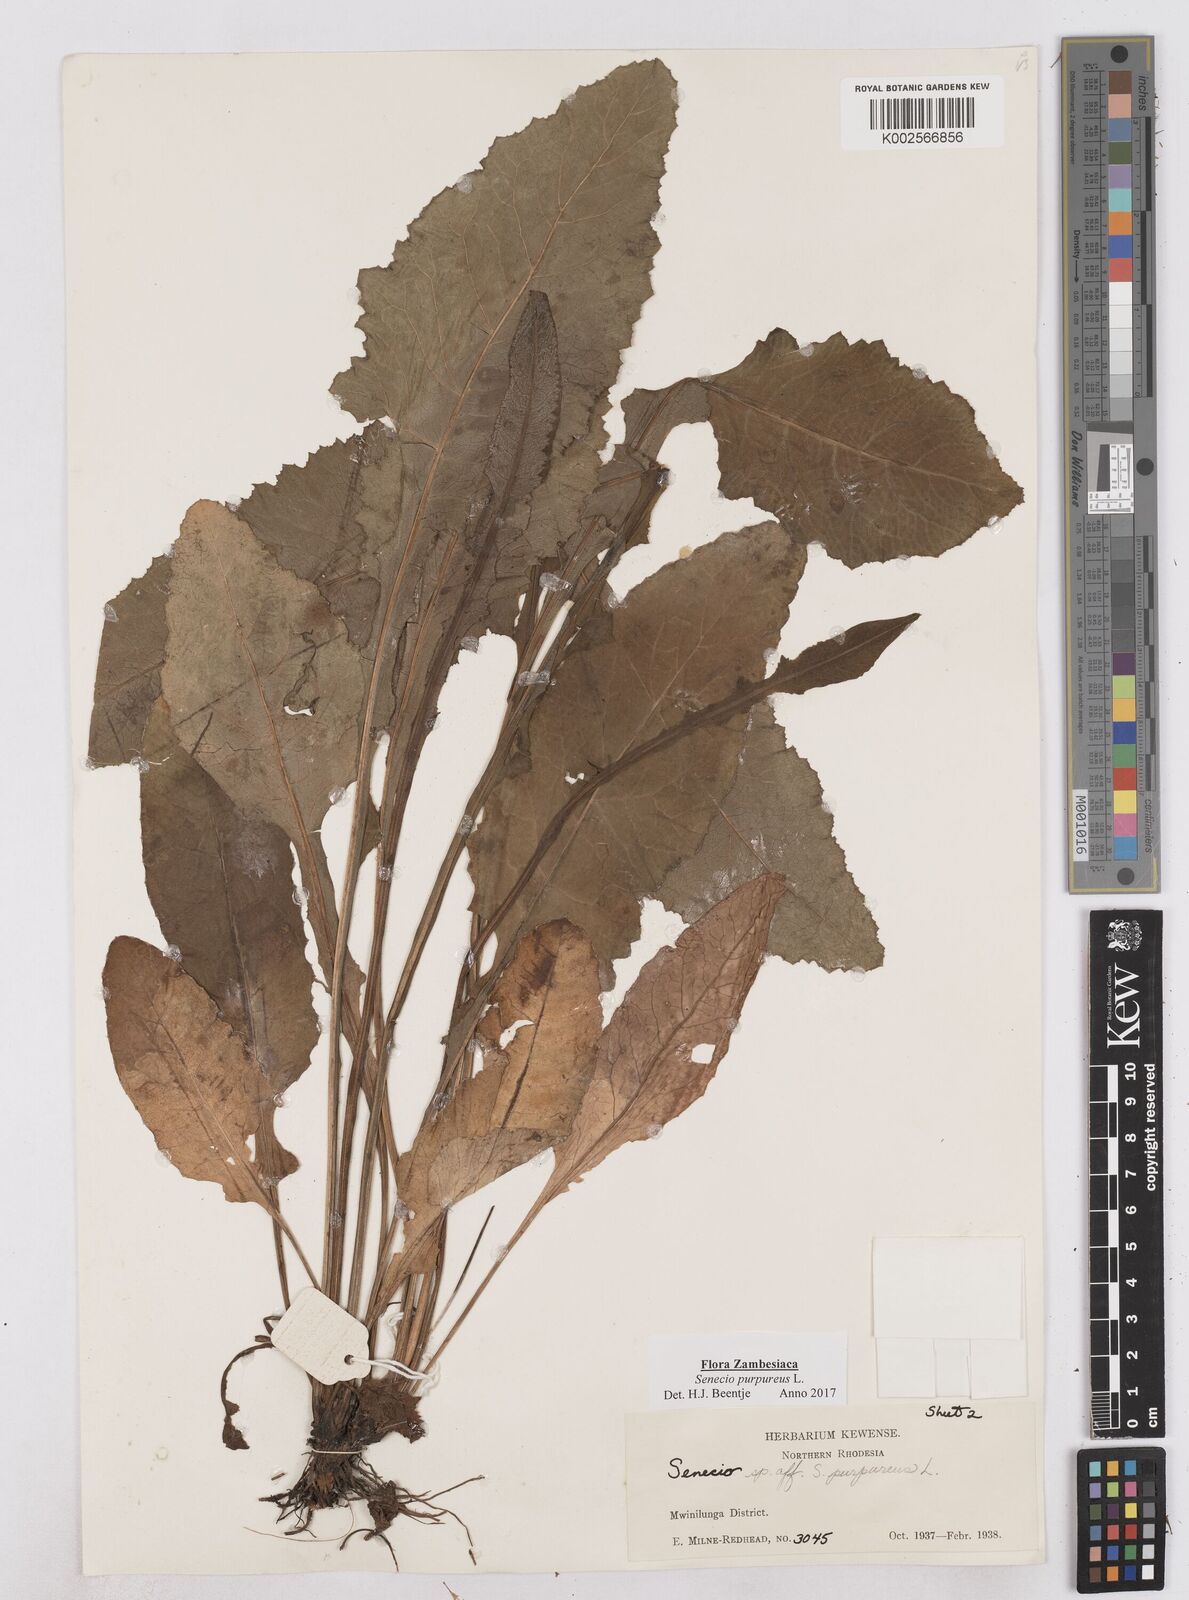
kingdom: Plantae
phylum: Tracheophyta
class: Magnoliopsida
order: Asterales
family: Asteraceae
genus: Senecio
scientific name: Senecio purpureus
